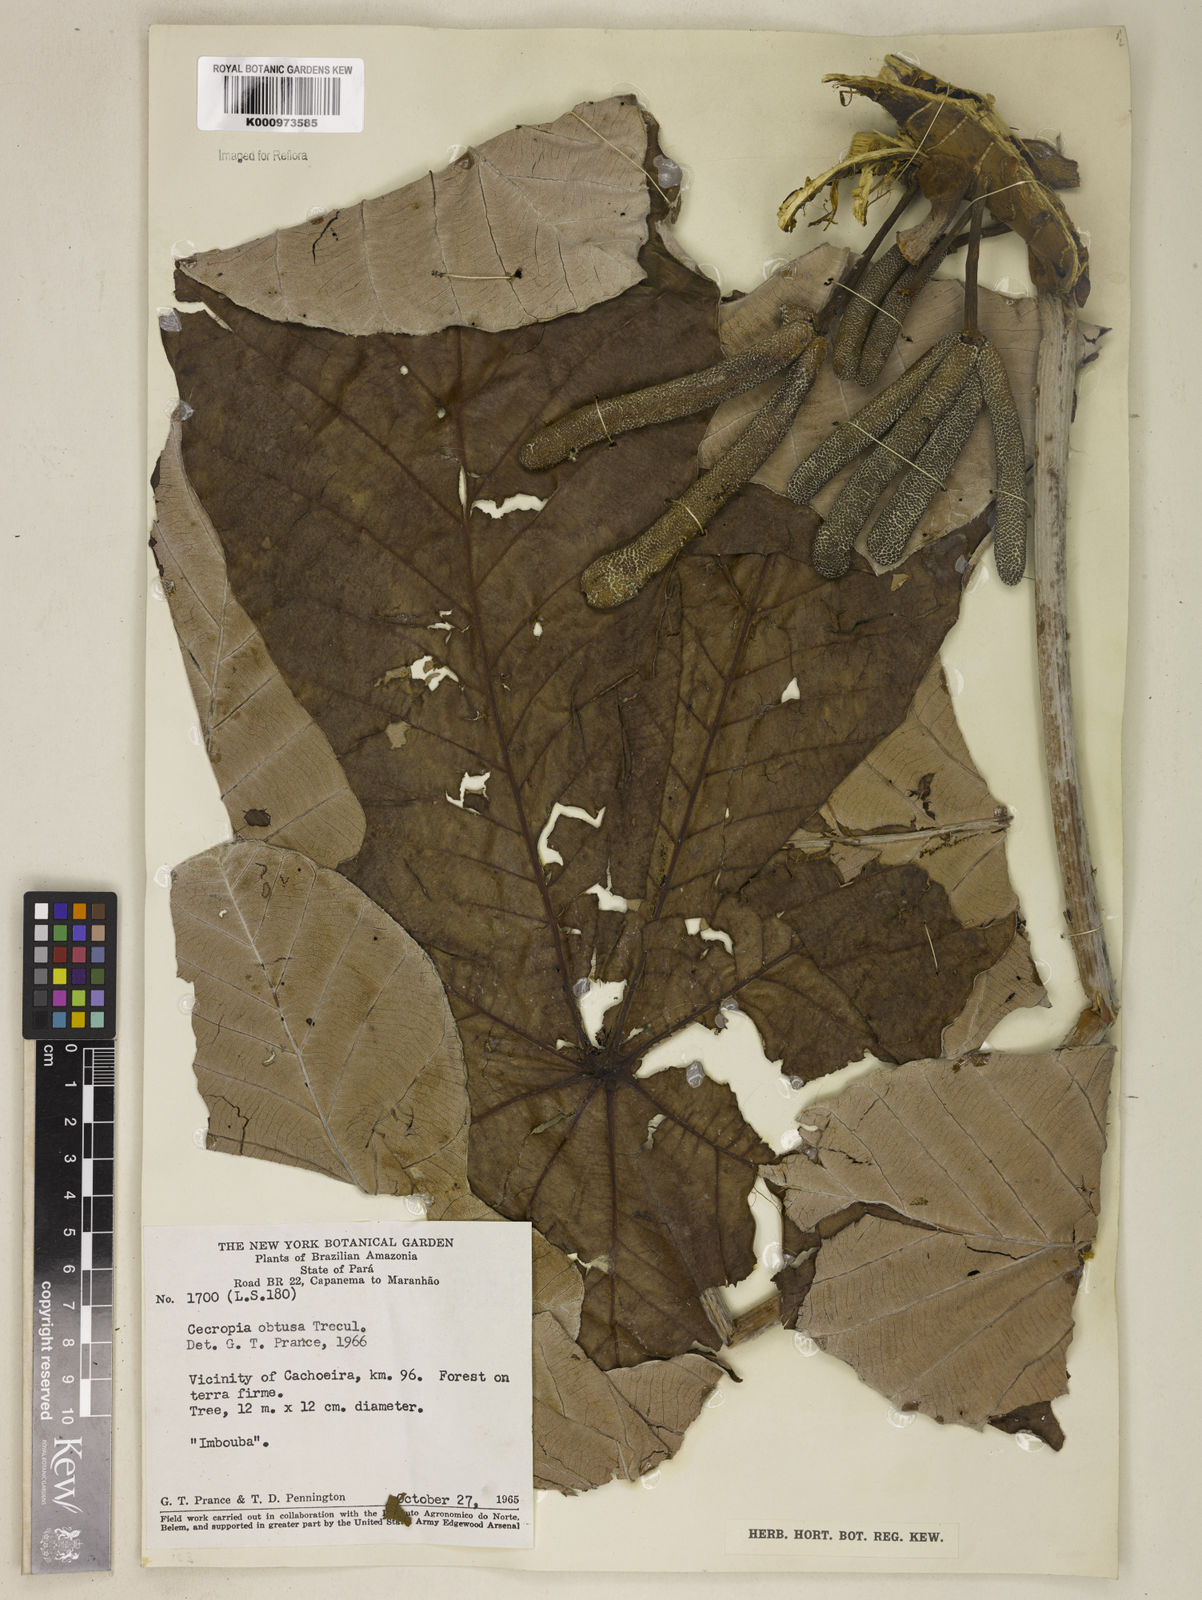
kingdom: Plantae
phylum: Tracheophyta
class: Magnoliopsida
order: Rosales
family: Urticaceae
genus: Cecropia
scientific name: Cecropia
